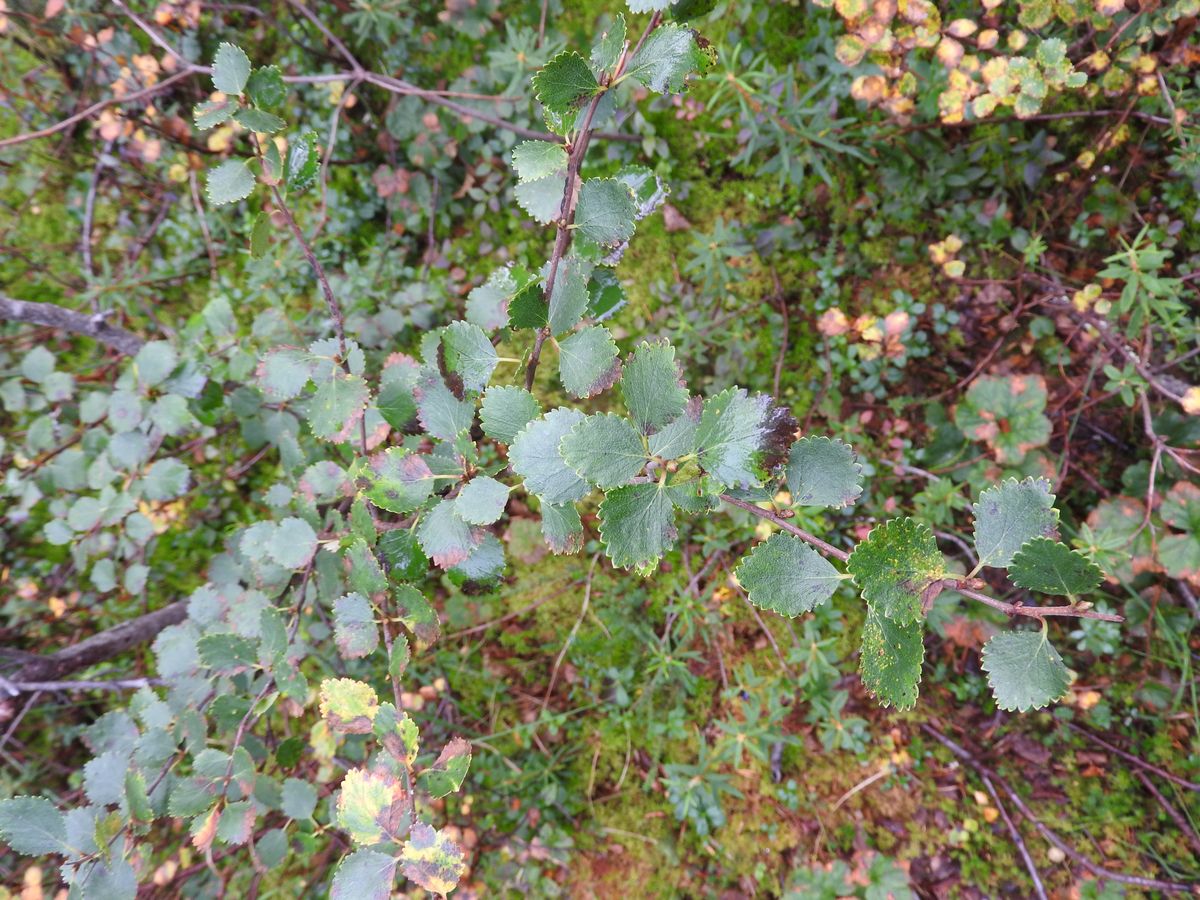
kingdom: Plantae
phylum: Tracheophyta
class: Magnoliopsida
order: Fagales
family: Betulaceae
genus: Betula
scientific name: Betula pubescens
